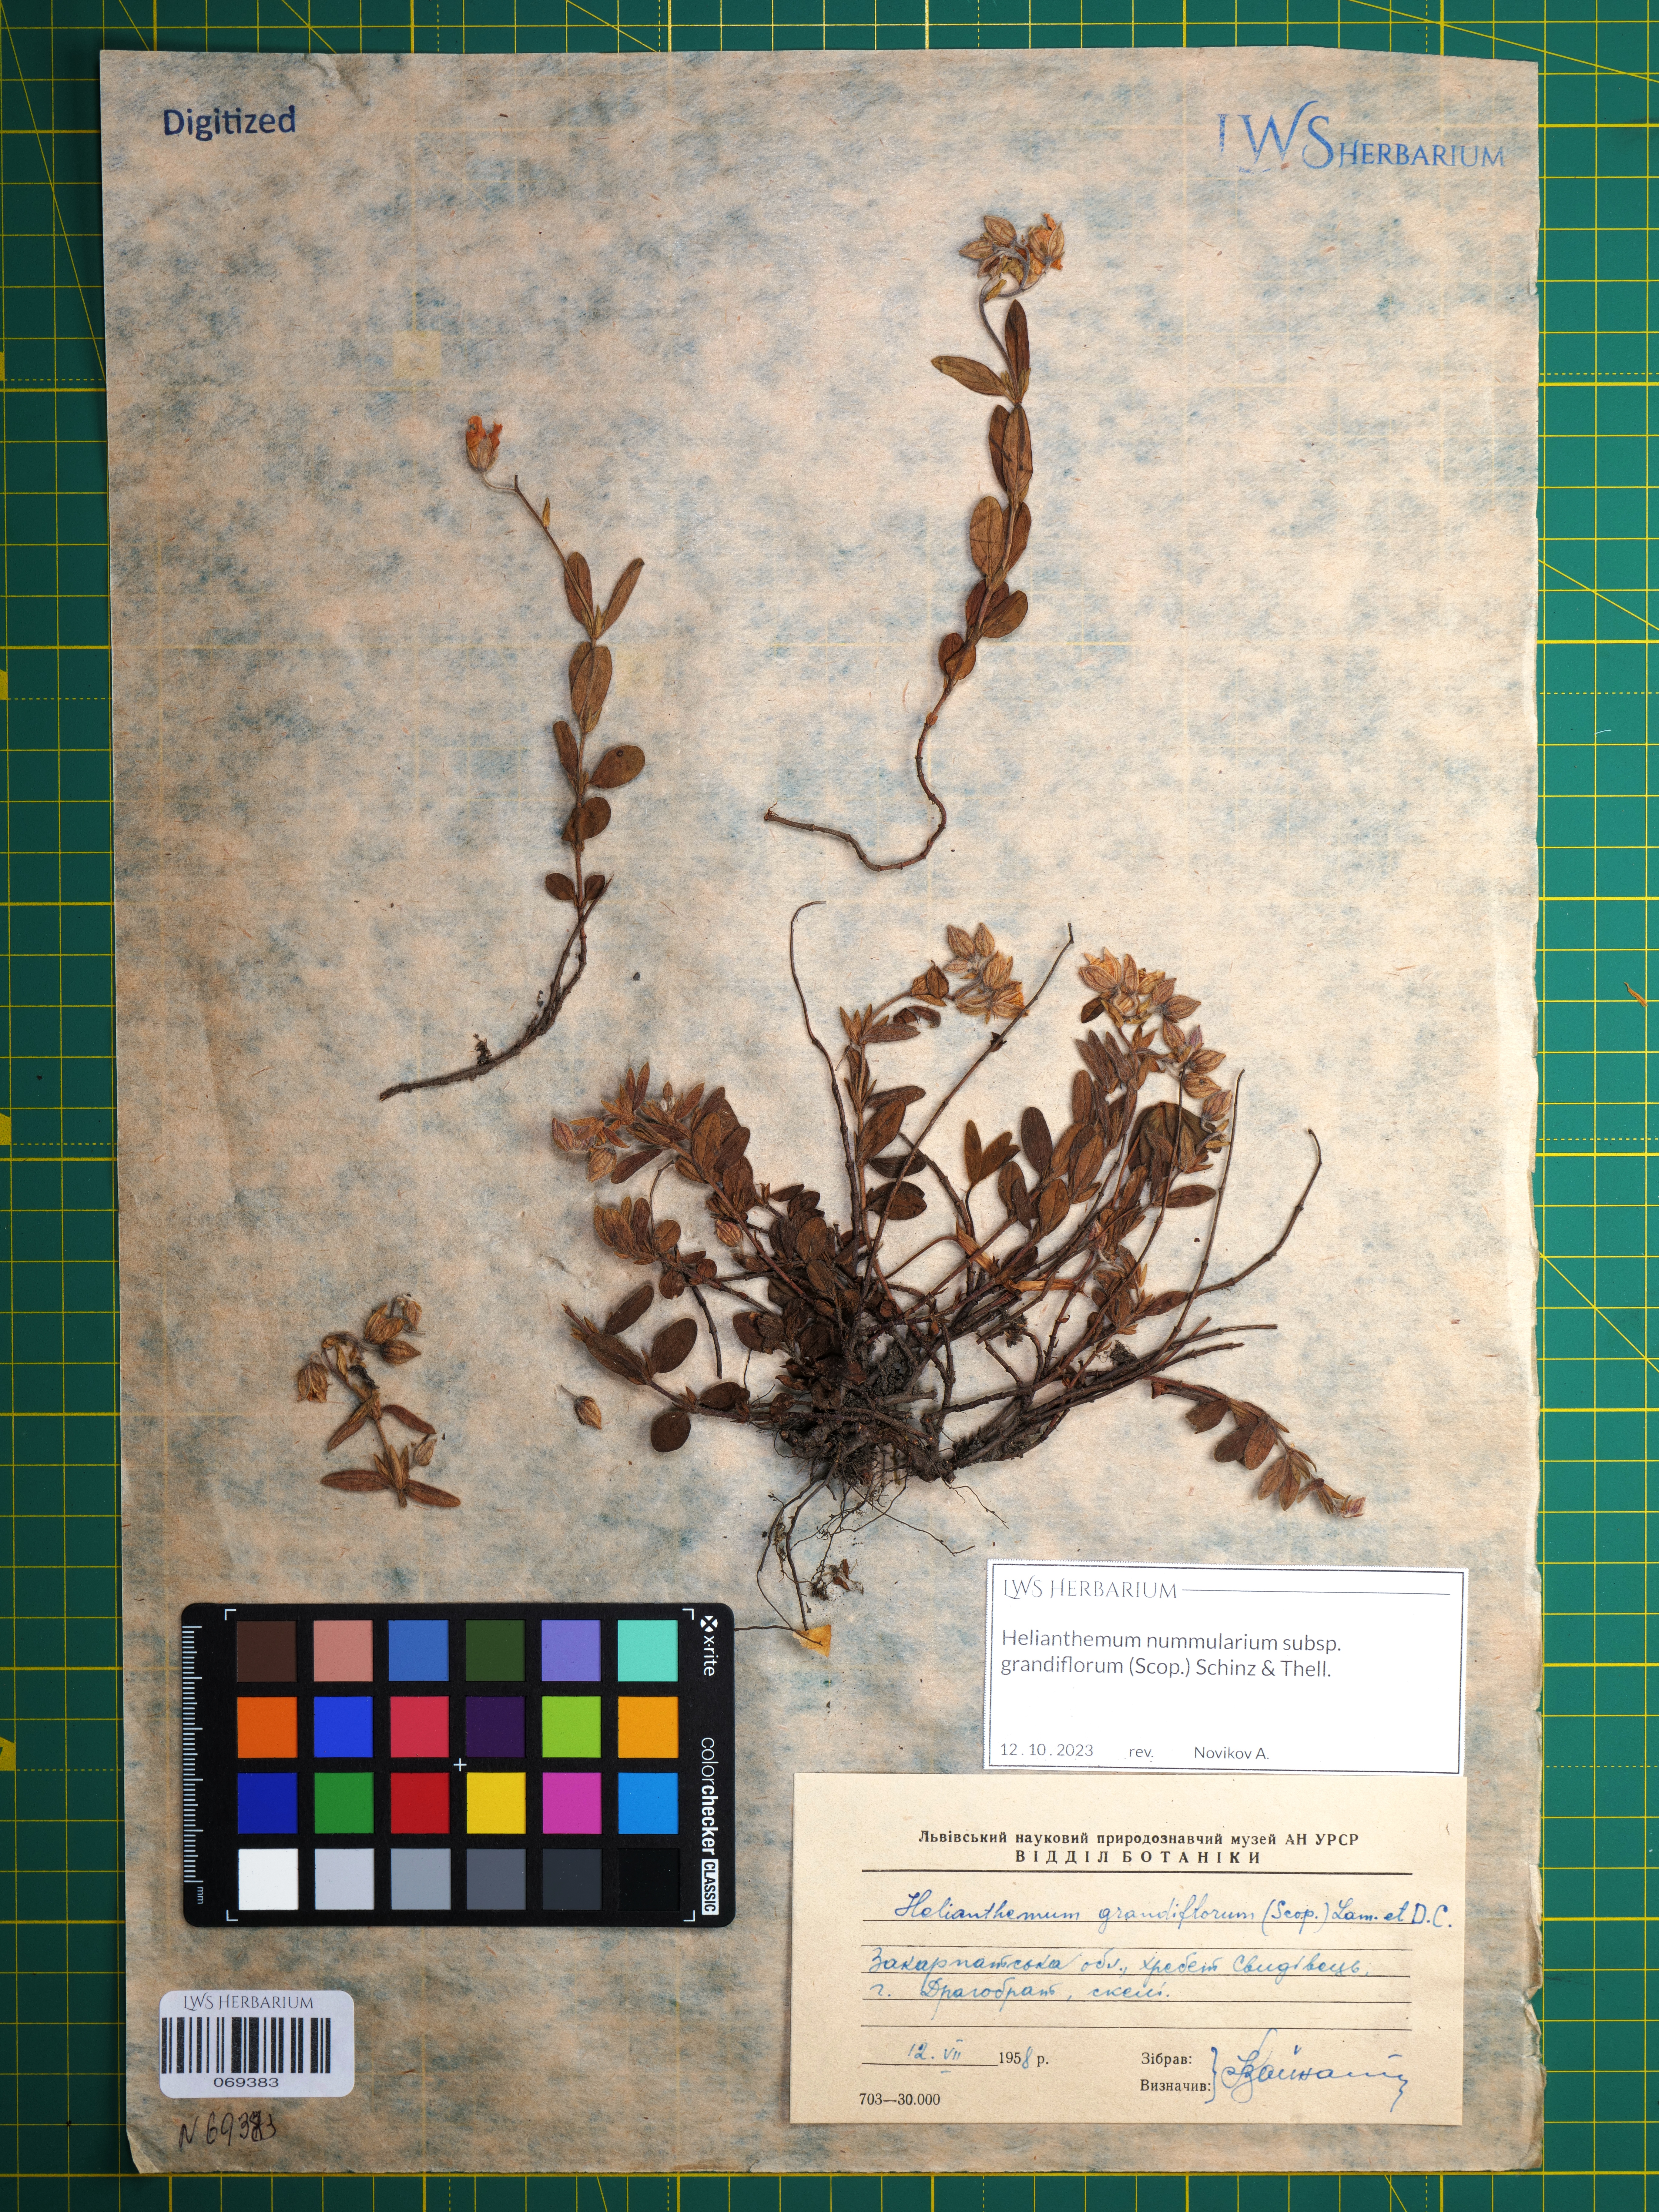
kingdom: Plantae
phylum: Tracheophyta
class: Magnoliopsida
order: Malvales
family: Cistaceae
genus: Helianthemum
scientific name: Helianthemum nummularium
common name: Common rock-rose
